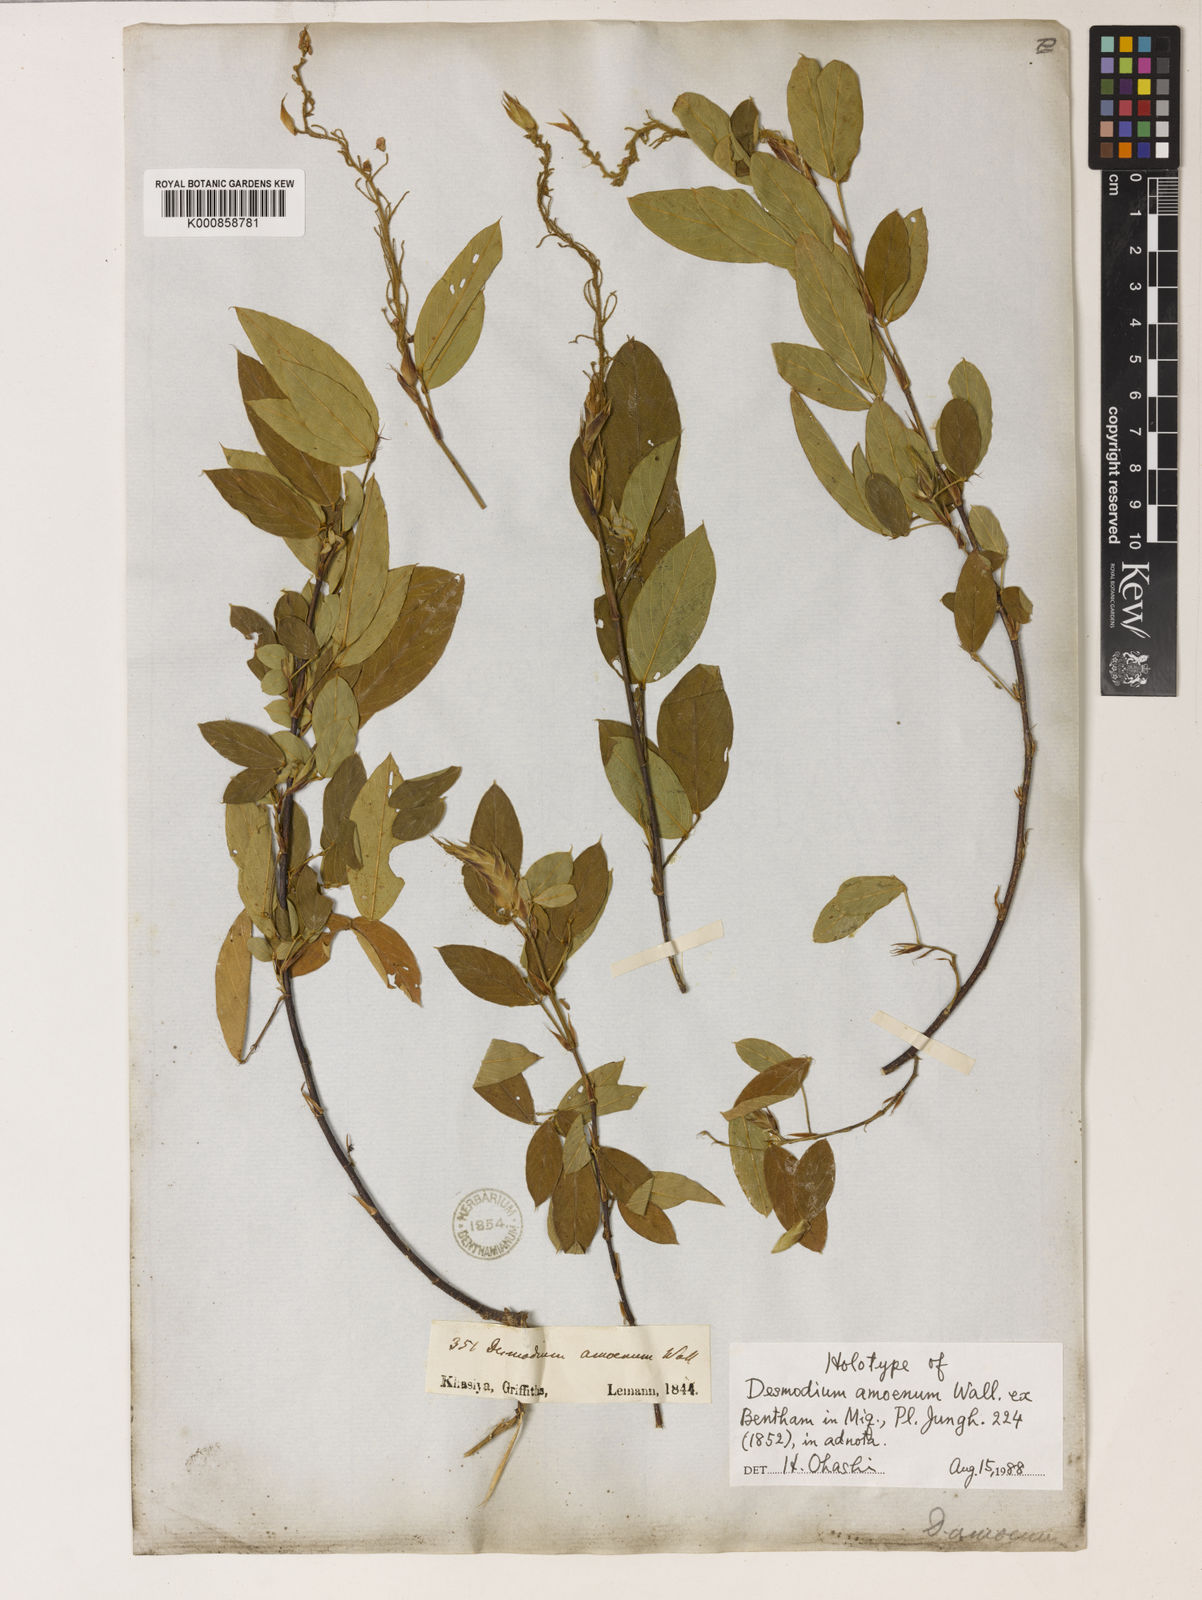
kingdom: Plantae
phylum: Tracheophyta
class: Magnoliopsida
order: Fabales
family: Fabaceae
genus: Tateishia
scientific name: Tateishia concinna
